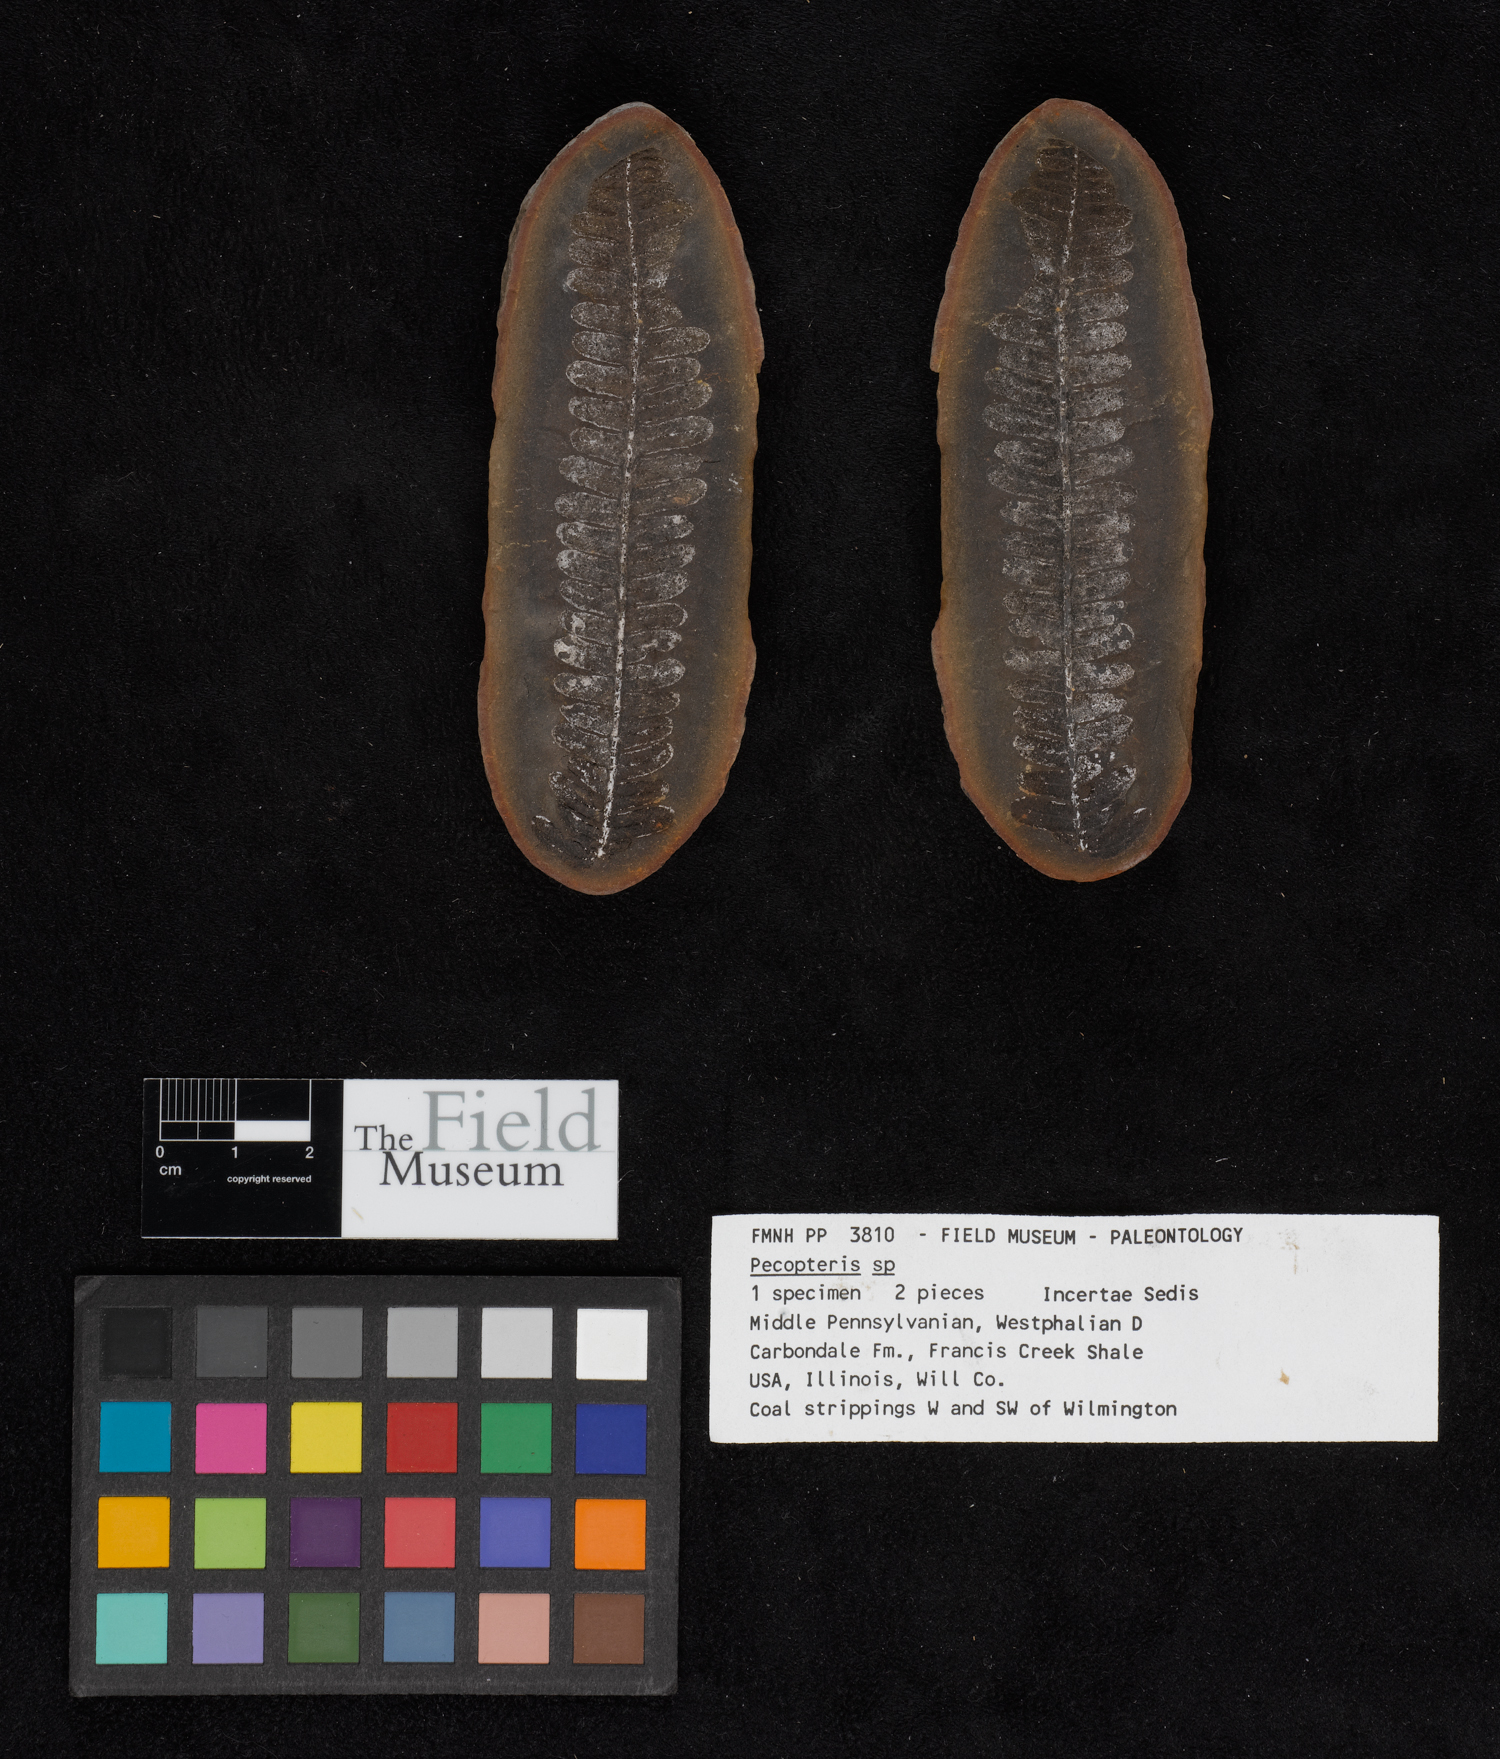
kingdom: Plantae
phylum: Tracheophyta
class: Polypodiopsida
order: Marattiales
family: Asterothecaceae
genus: Pecopteris
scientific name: Pecopteris
